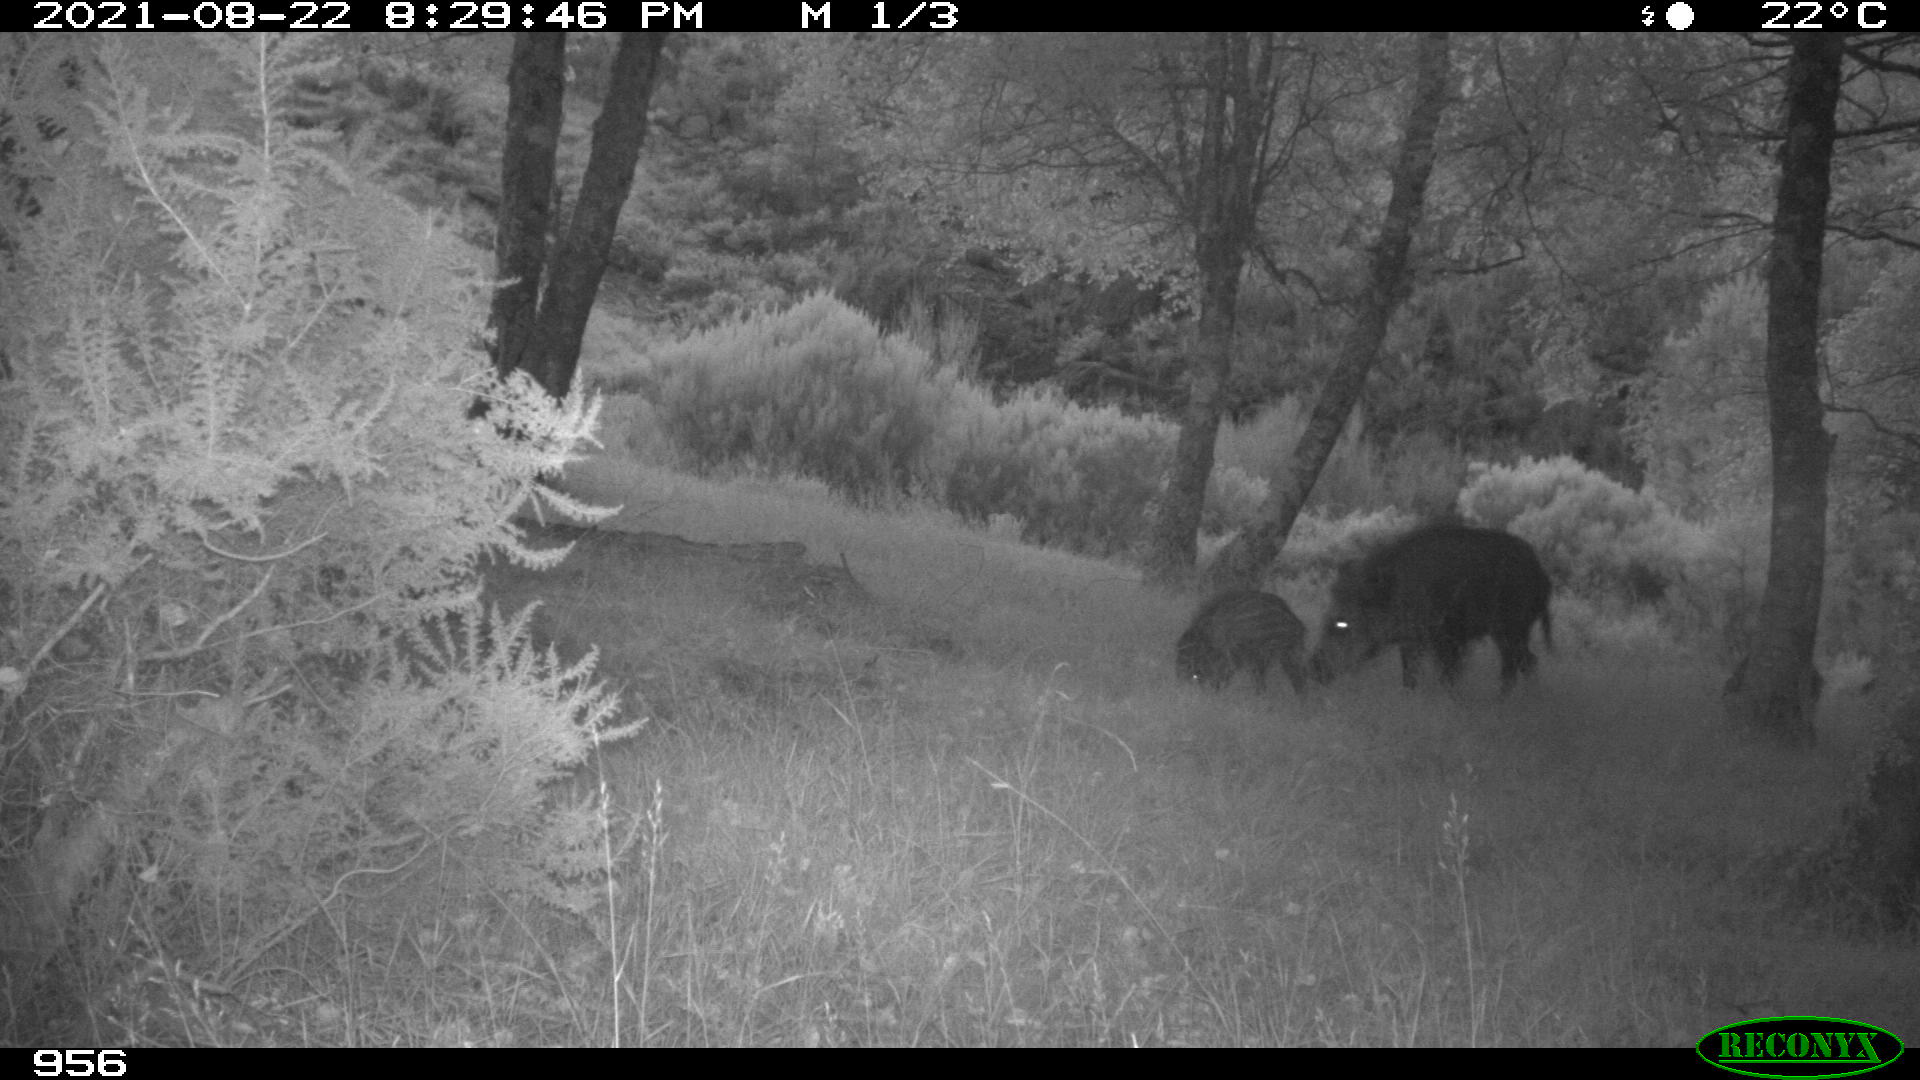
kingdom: Animalia
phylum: Chordata
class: Mammalia
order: Artiodactyla
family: Suidae
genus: Sus
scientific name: Sus scrofa
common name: Wild boar
